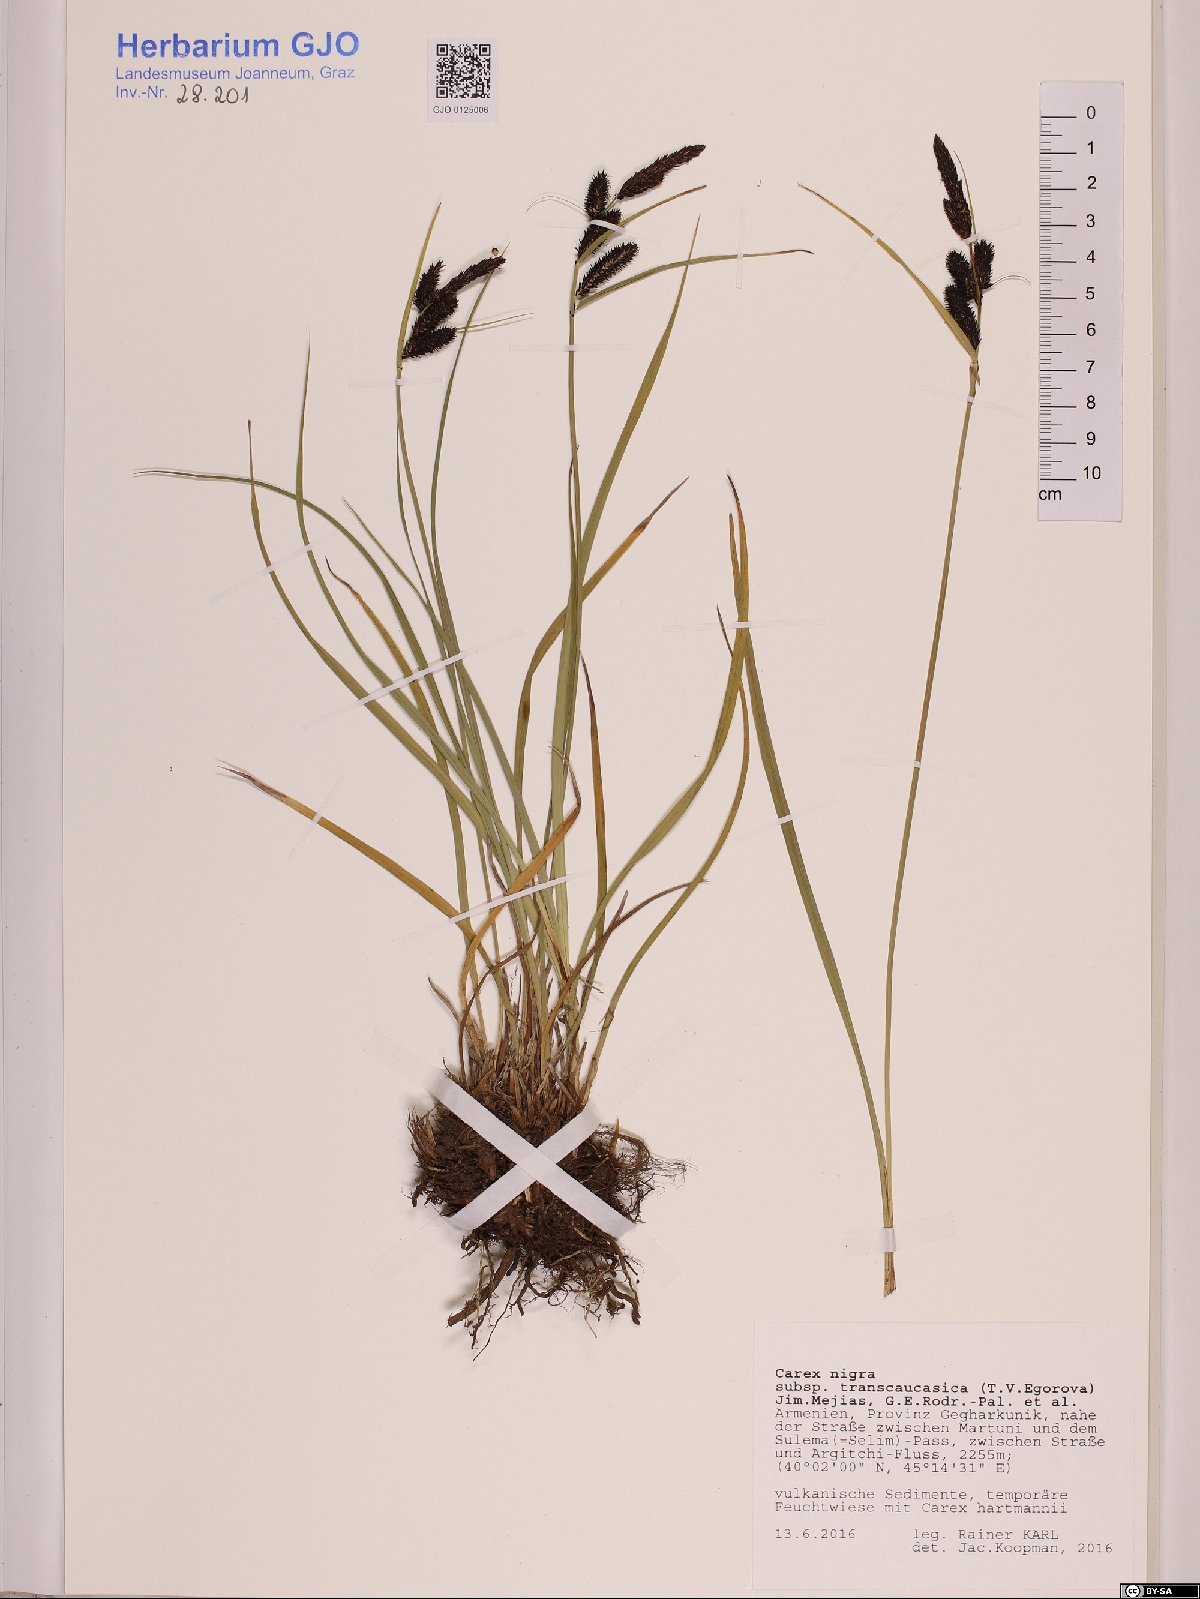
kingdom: Plantae
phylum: Tracheophyta
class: Liliopsida
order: Poales
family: Cyperaceae
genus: Carex
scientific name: Carex nigra
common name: Common sedge
